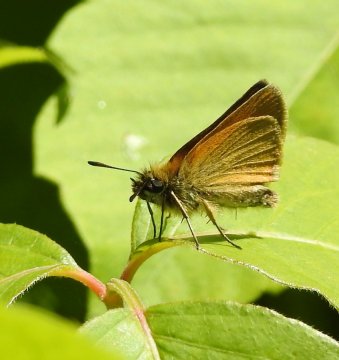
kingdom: Animalia
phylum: Arthropoda
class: Insecta
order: Lepidoptera
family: Hesperiidae
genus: Thymelicus
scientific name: Thymelicus lineola
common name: European Skipper
